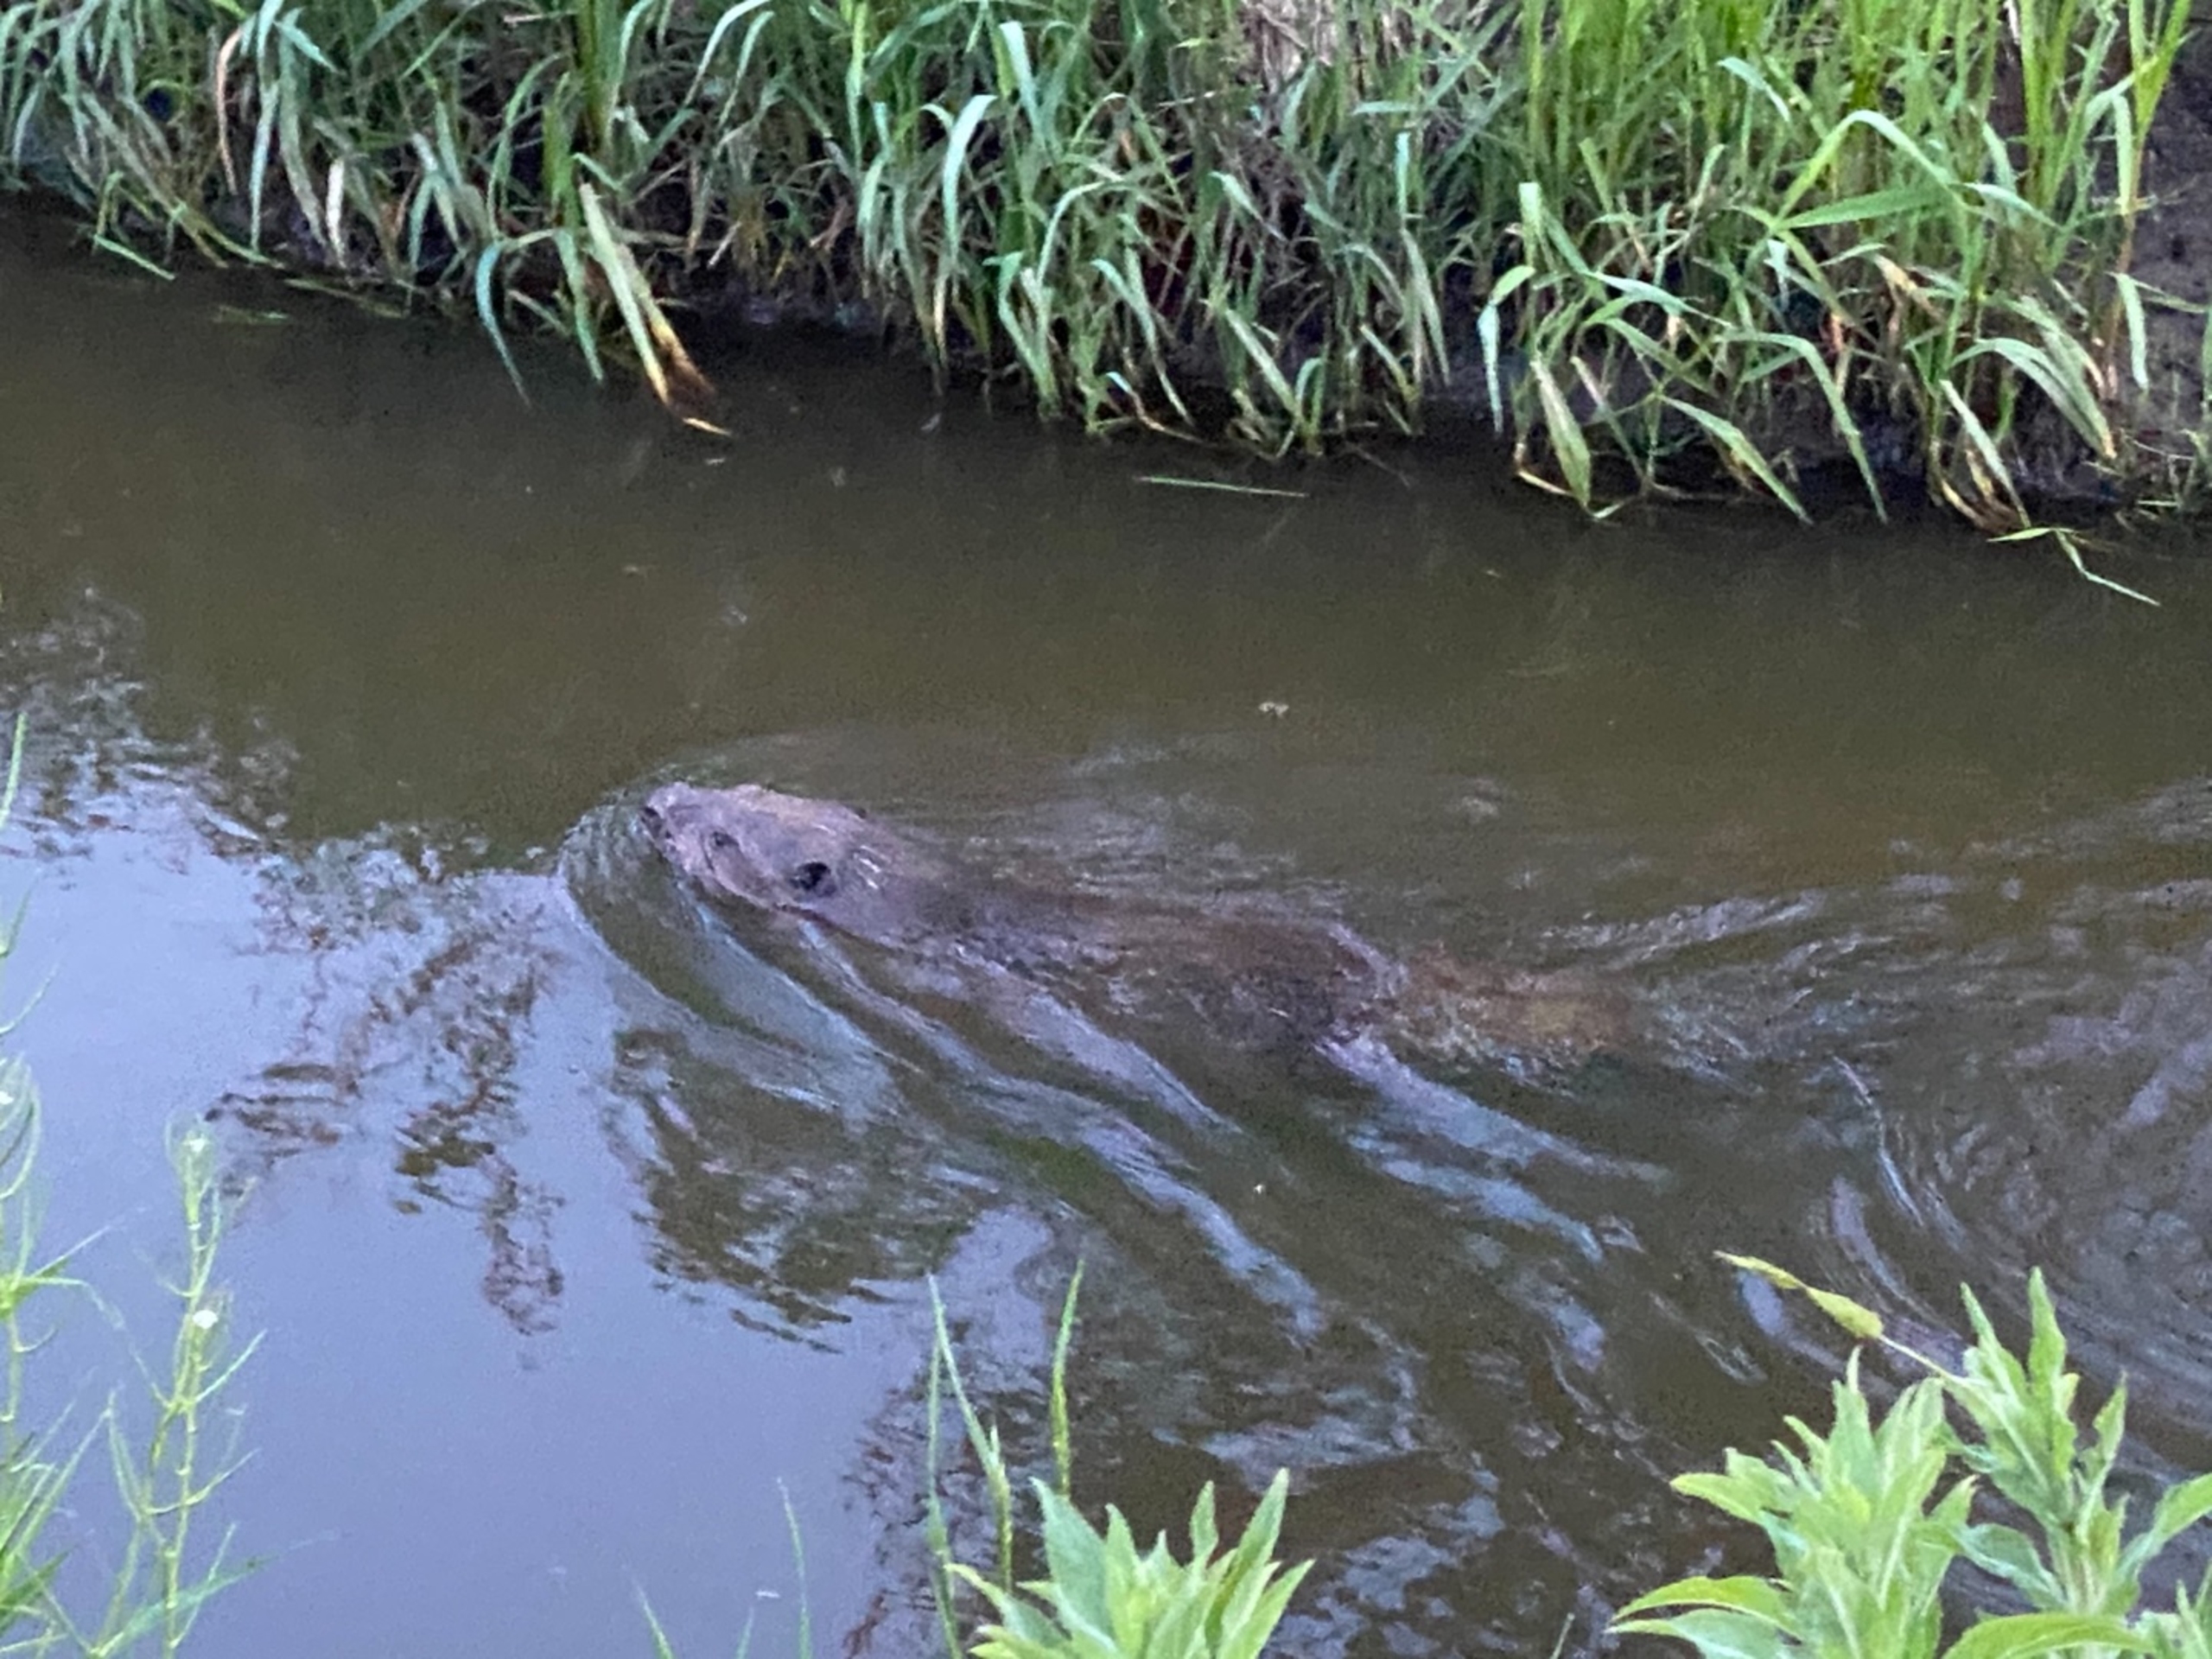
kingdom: Animalia
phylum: Chordata
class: Mammalia
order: Rodentia
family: Castoridae
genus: Castor
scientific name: Castor fiber
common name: Bæver
